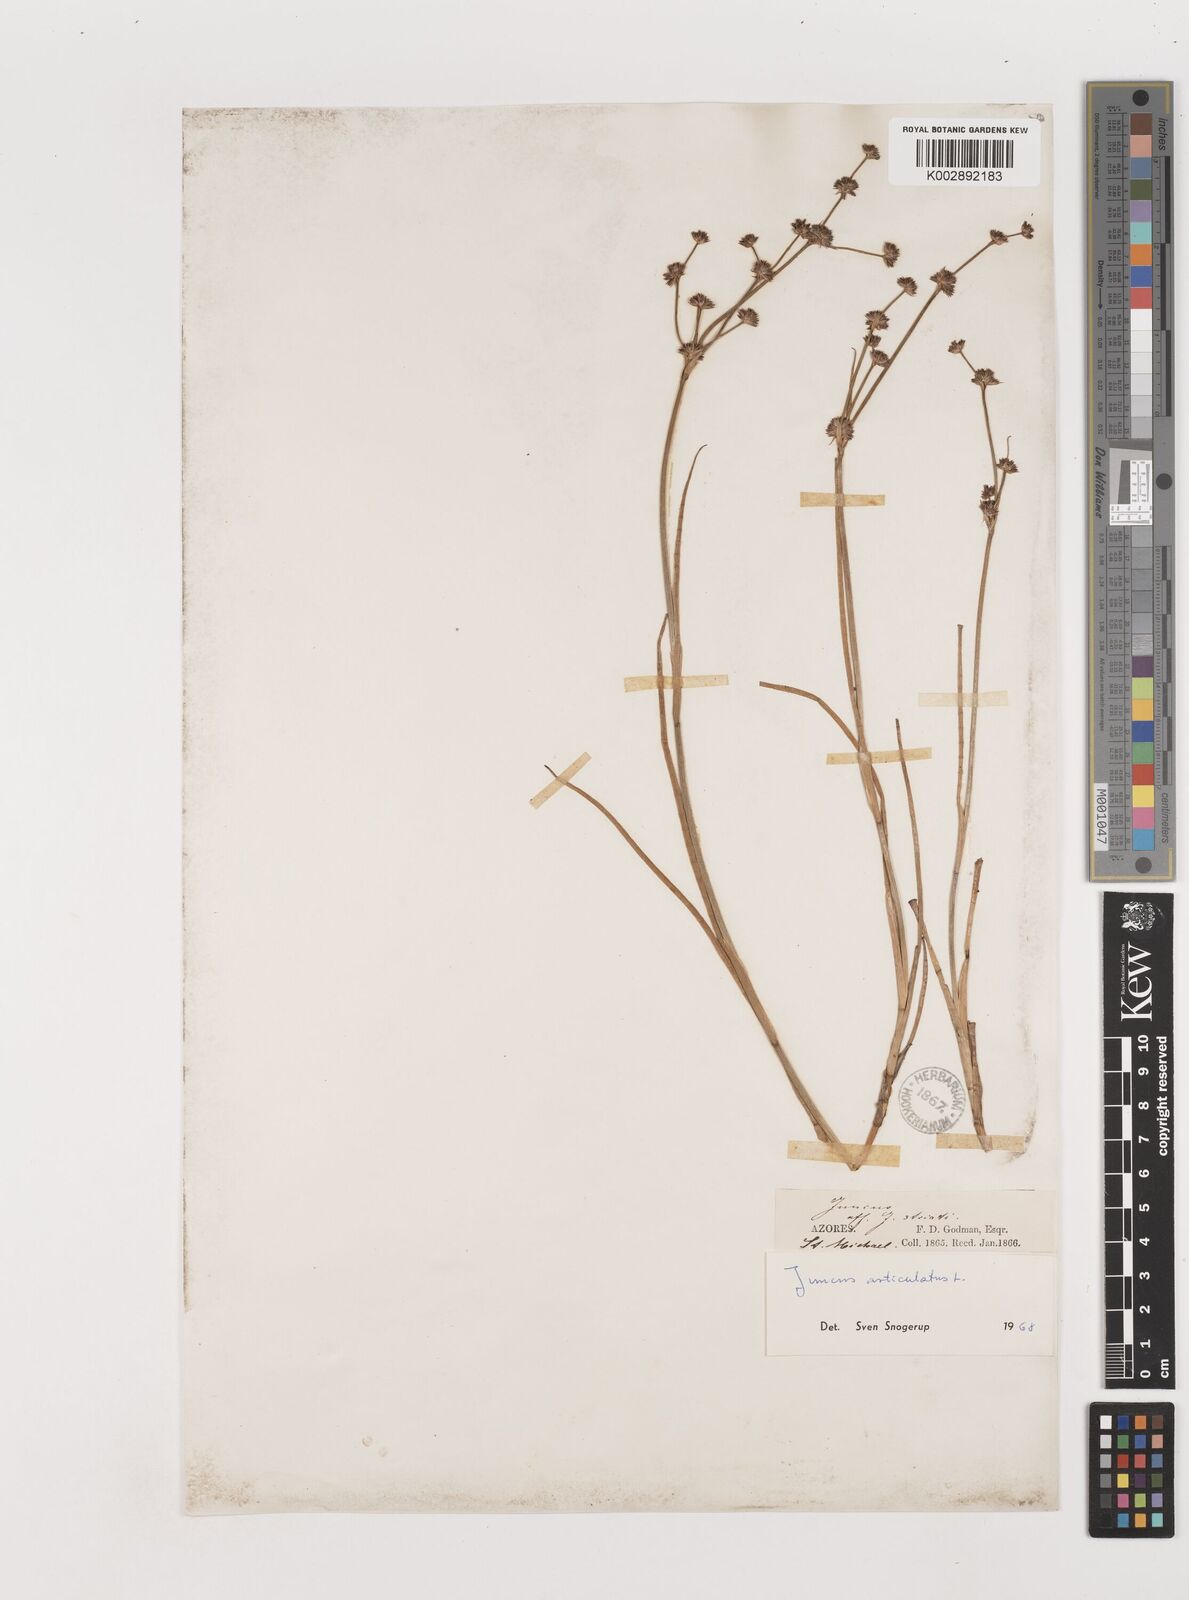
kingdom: Plantae
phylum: Tracheophyta
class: Liliopsida
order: Poales
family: Juncaceae
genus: Juncus
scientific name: Juncus articulatus
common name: Jointed rush
